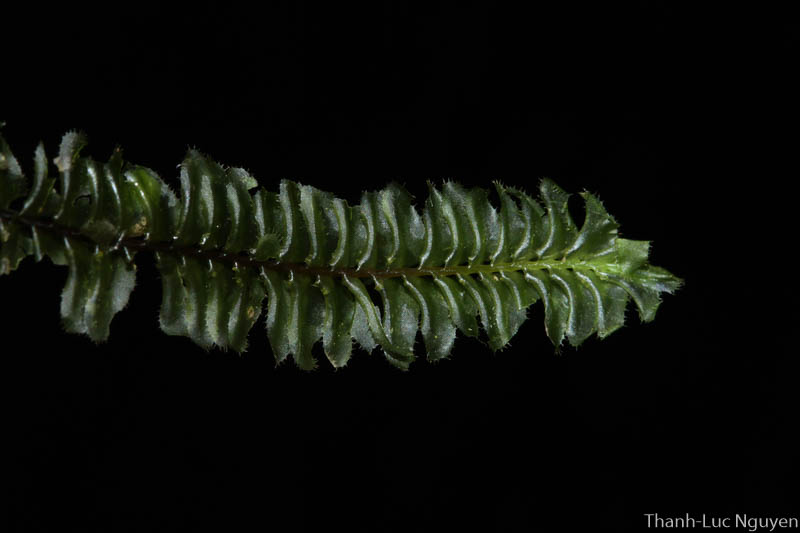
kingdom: Plantae
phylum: Marchantiophyta
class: Jungermanniopsida
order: Jungermanniales
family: Plagiochilaceae
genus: Plagiochila
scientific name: Plagiochila
